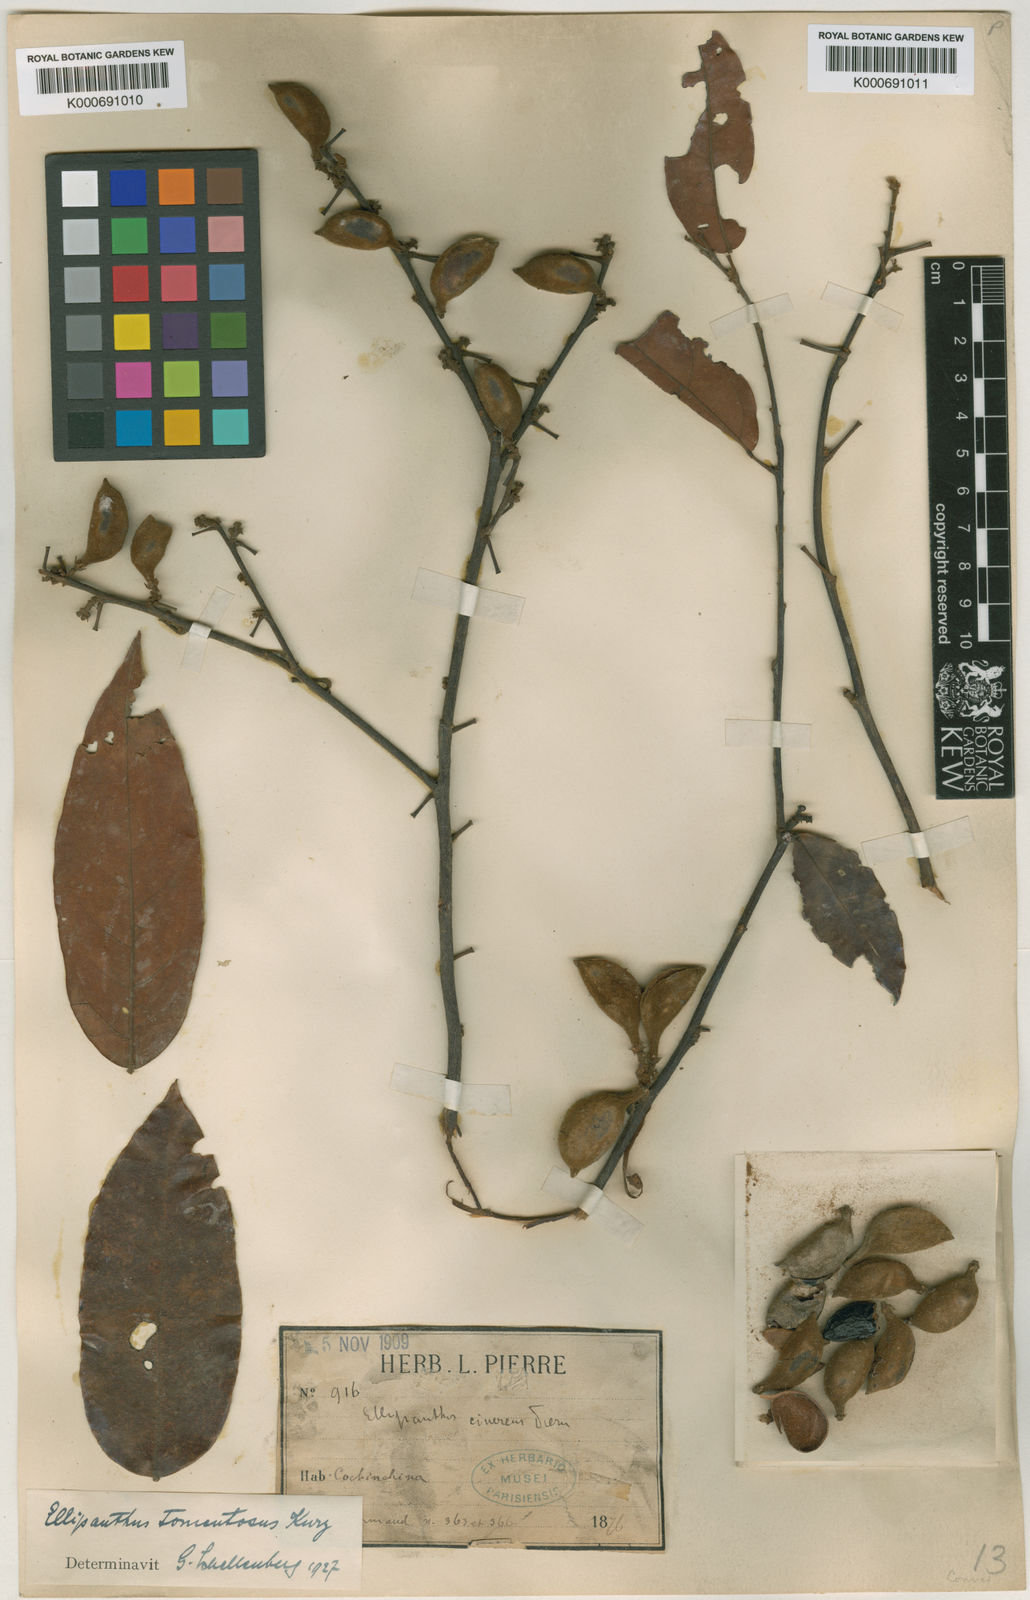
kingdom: Plantae
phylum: Tracheophyta
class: Magnoliopsida
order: Oxalidales
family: Connaraceae
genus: Ellipanthus
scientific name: Ellipanthus tomentosus
